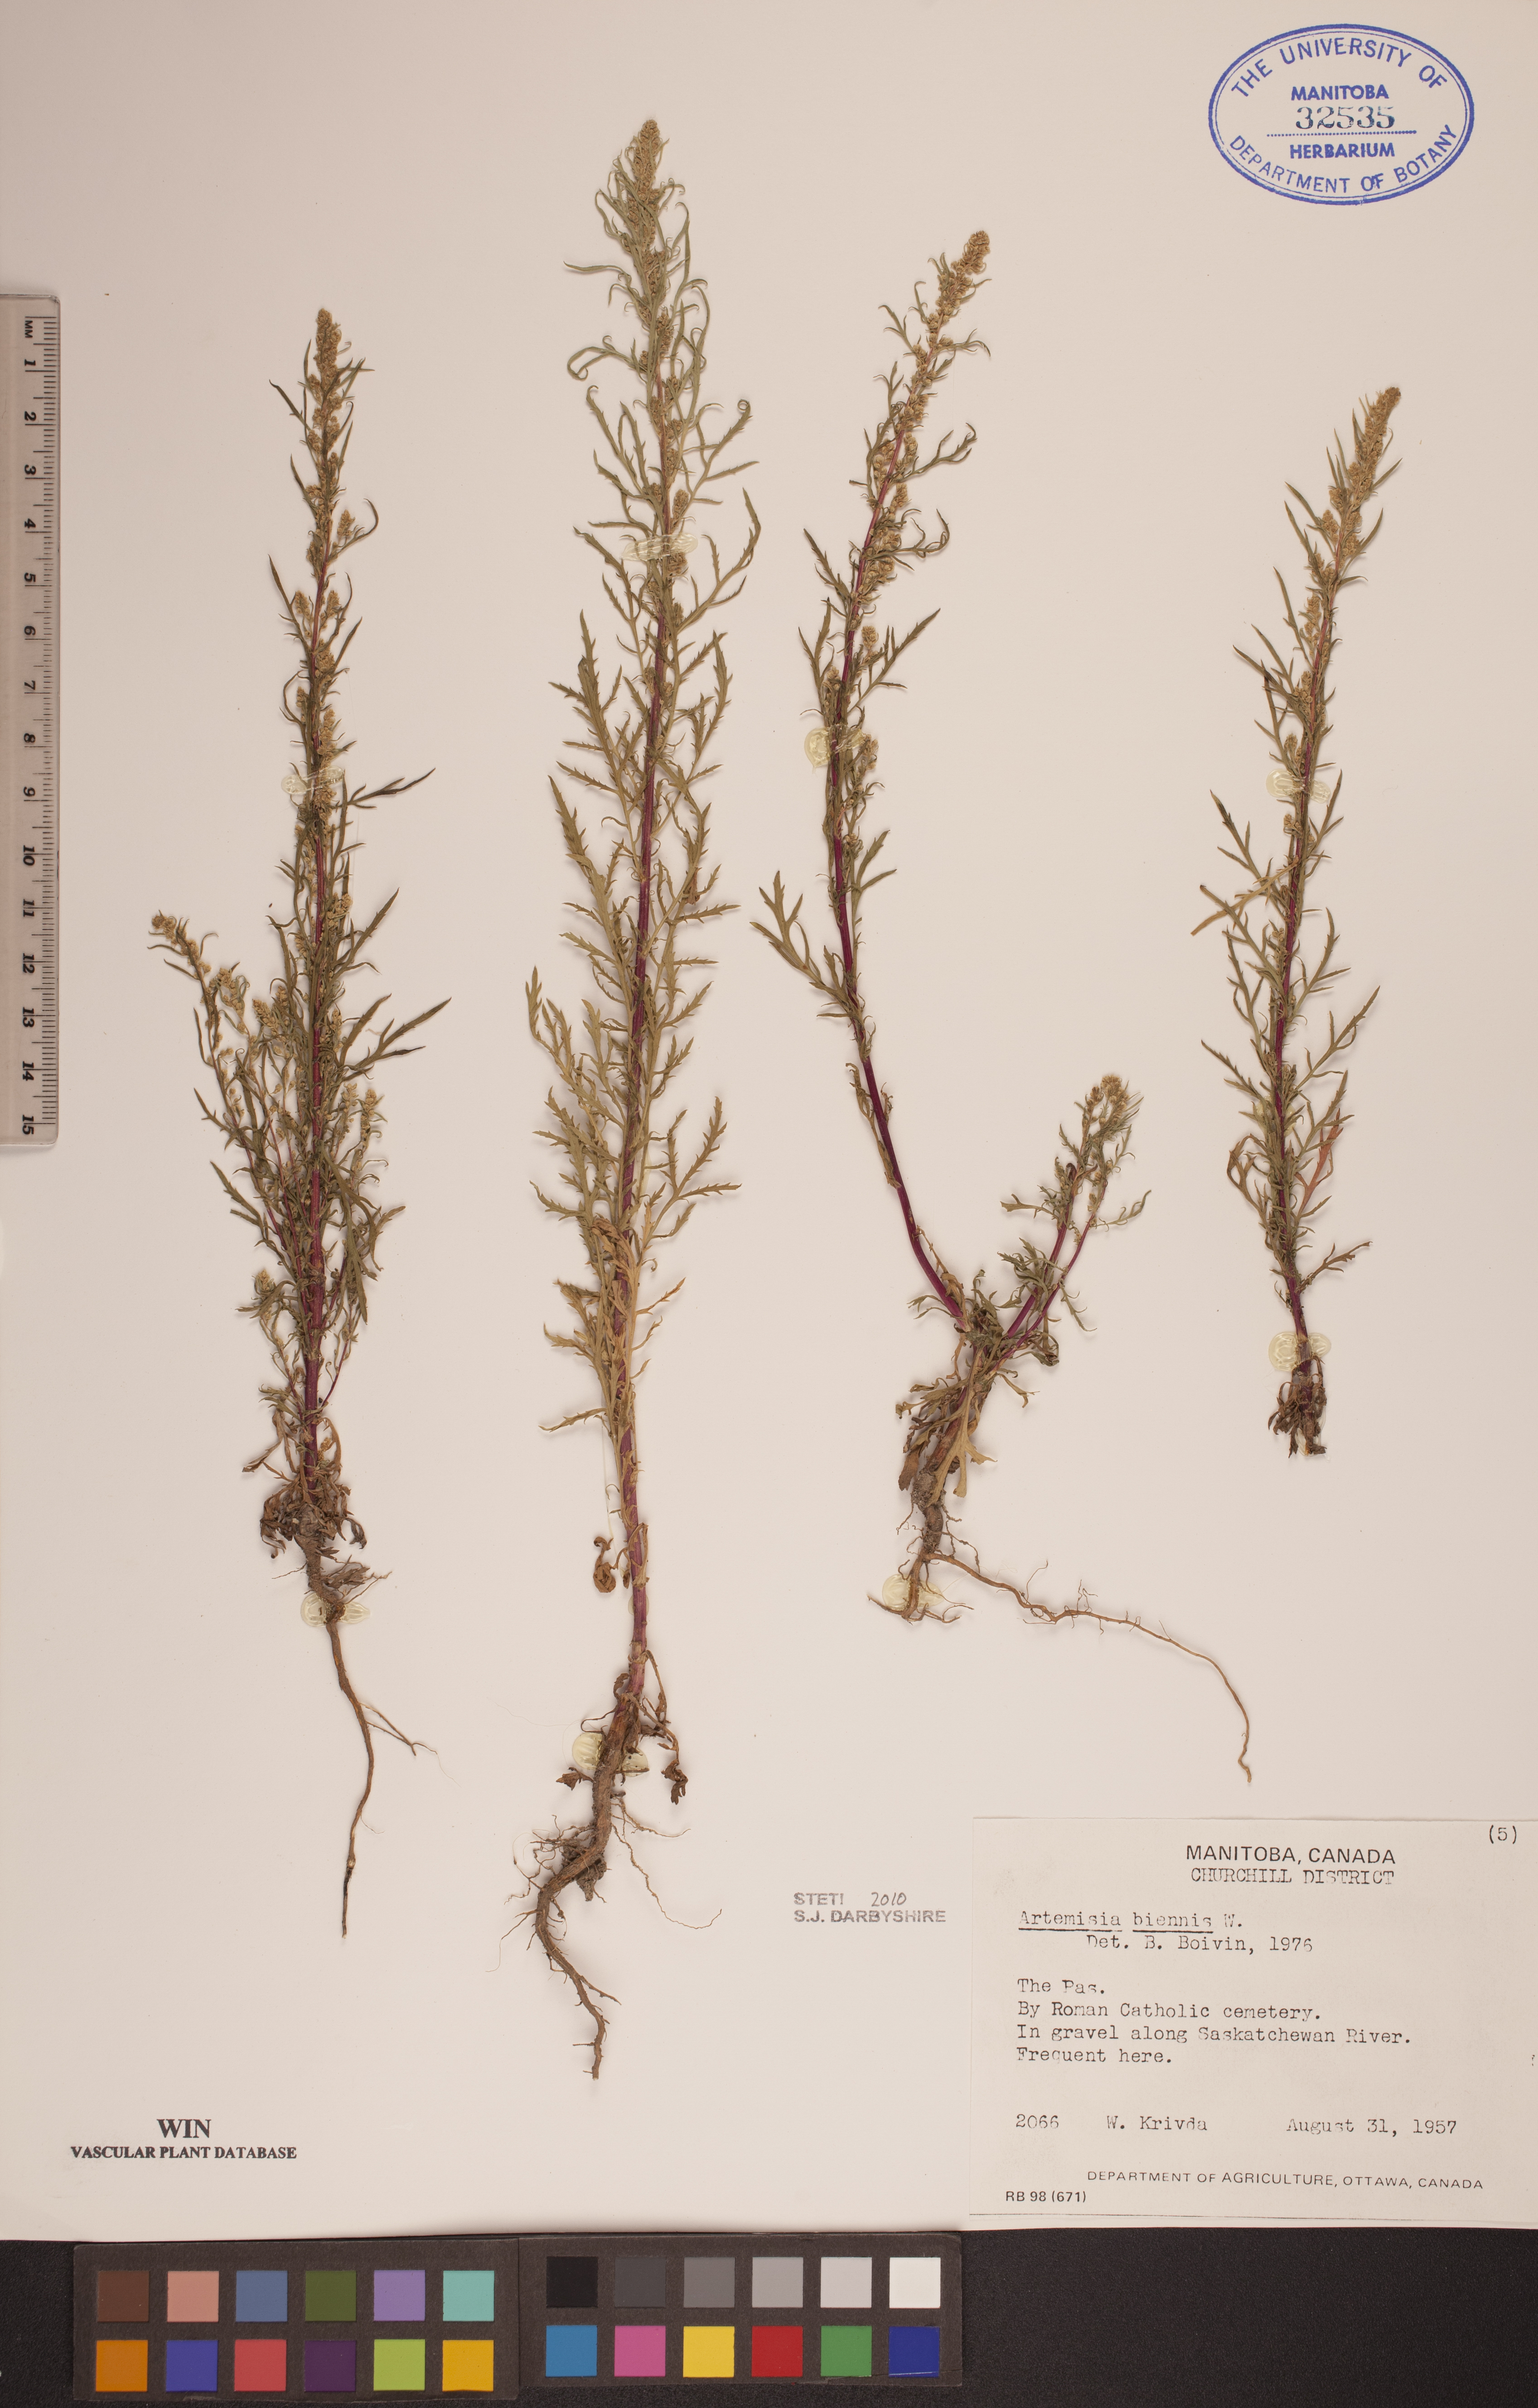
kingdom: Plantae
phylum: Tracheophyta
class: Magnoliopsida
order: Asterales
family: Asteraceae
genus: Artemisia
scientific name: Artemisia biennis
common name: Biennial wormwood
